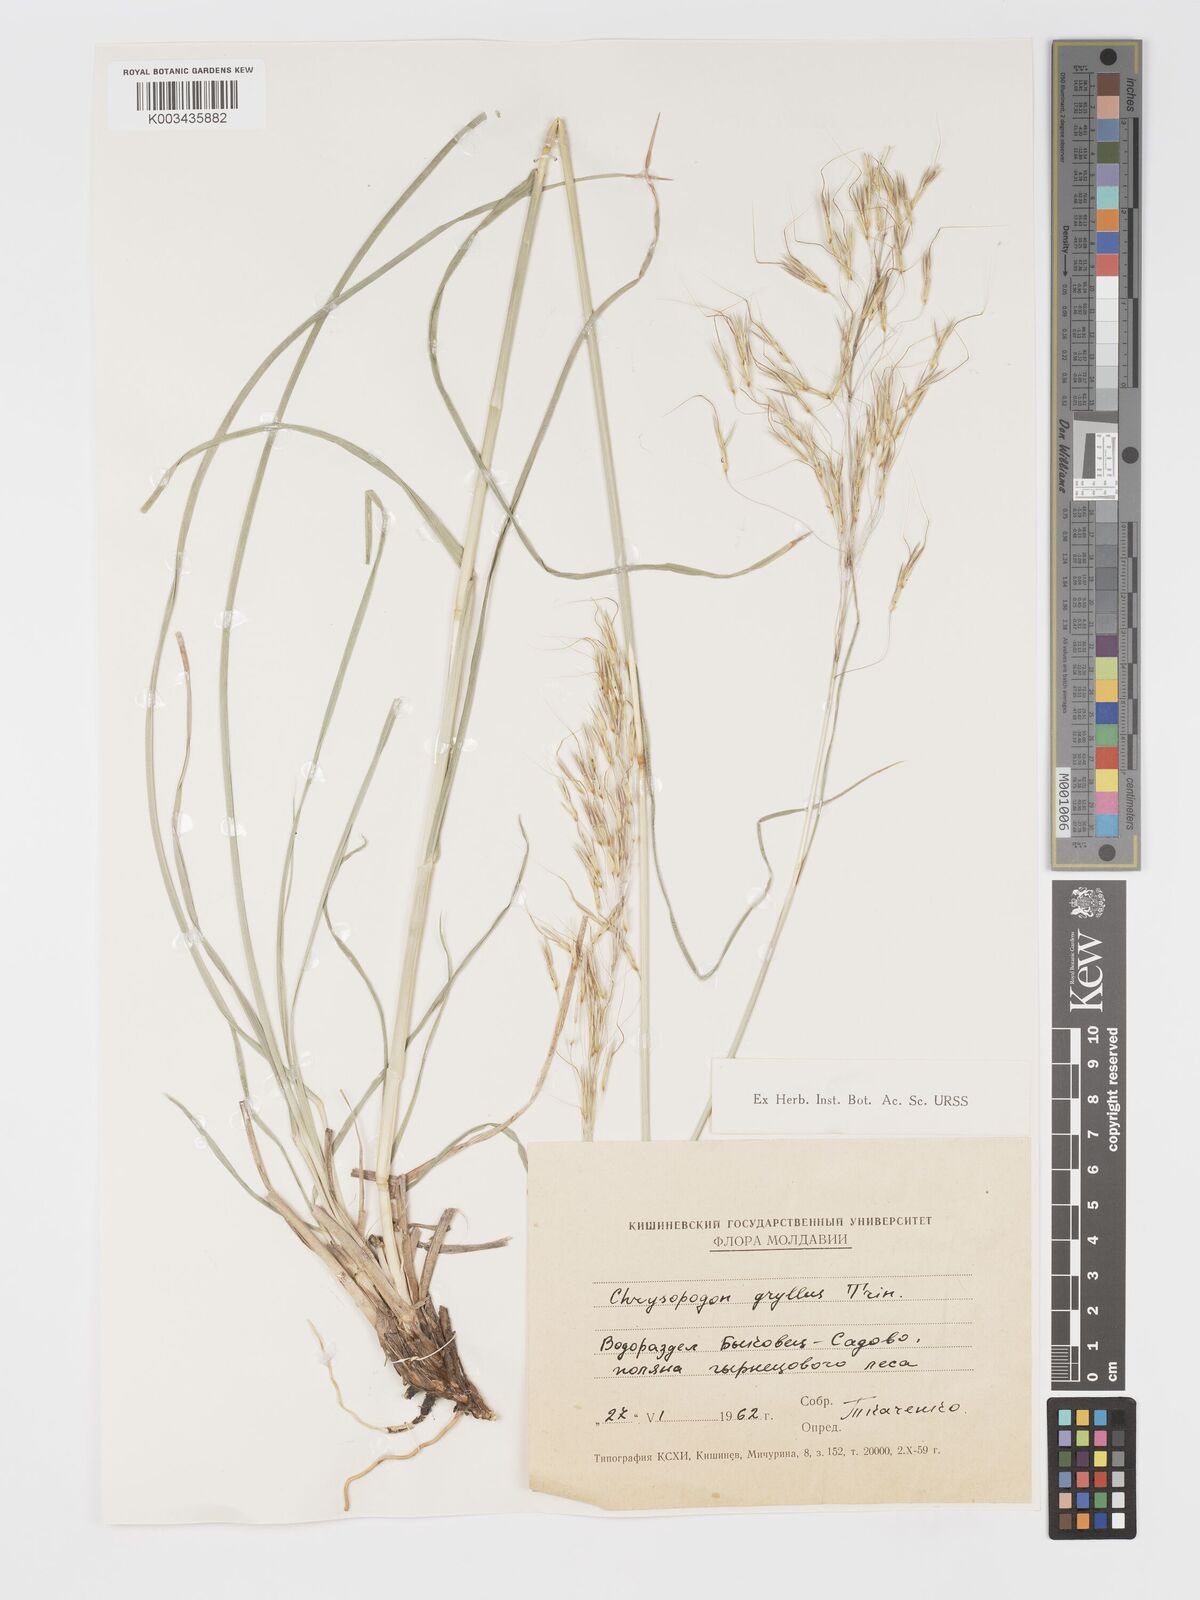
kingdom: Plantae
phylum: Tracheophyta
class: Liliopsida
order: Poales
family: Poaceae
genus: Chrysopogon
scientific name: Chrysopogon gryllus
